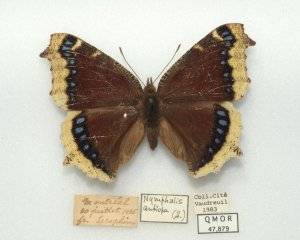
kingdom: Animalia
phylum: Arthropoda
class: Insecta
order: Lepidoptera
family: Nymphalidae
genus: Nymphalis
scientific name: Nymphalis antiopa
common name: Mourning Cloak
